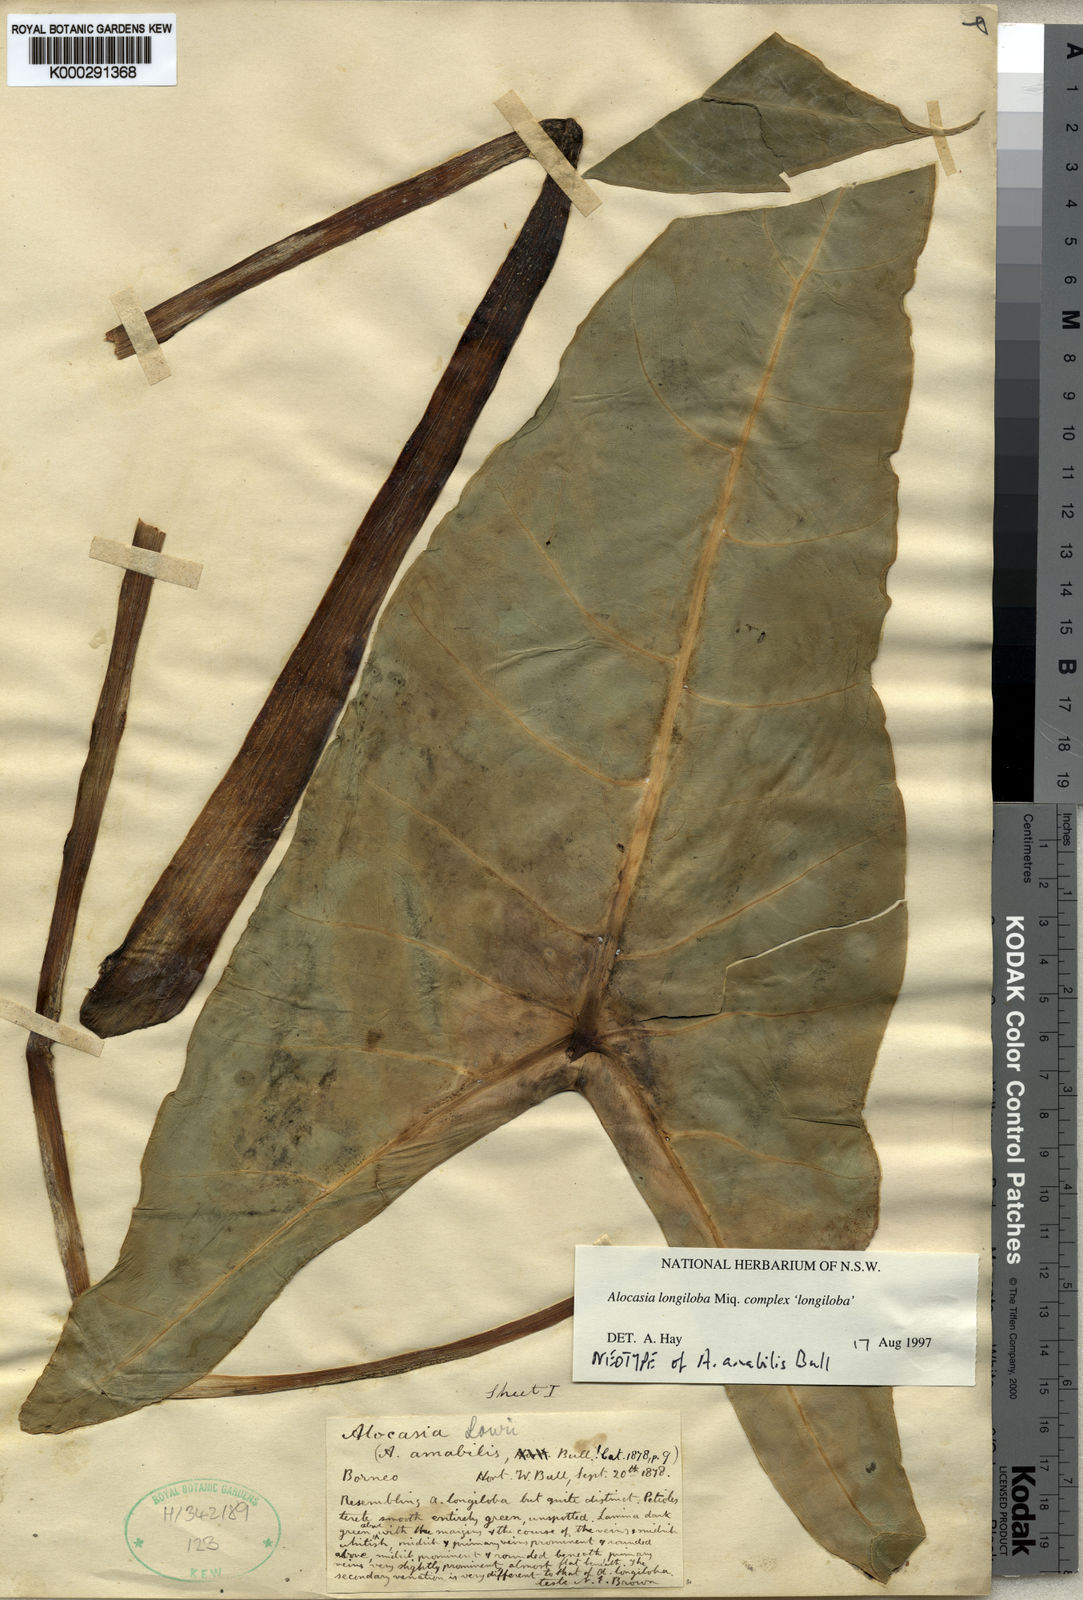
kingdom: Plantae
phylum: Tracheophyta
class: Liliopsida
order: Alismatales
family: Araceae
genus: Alocasia
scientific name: Alocasia longiloba
